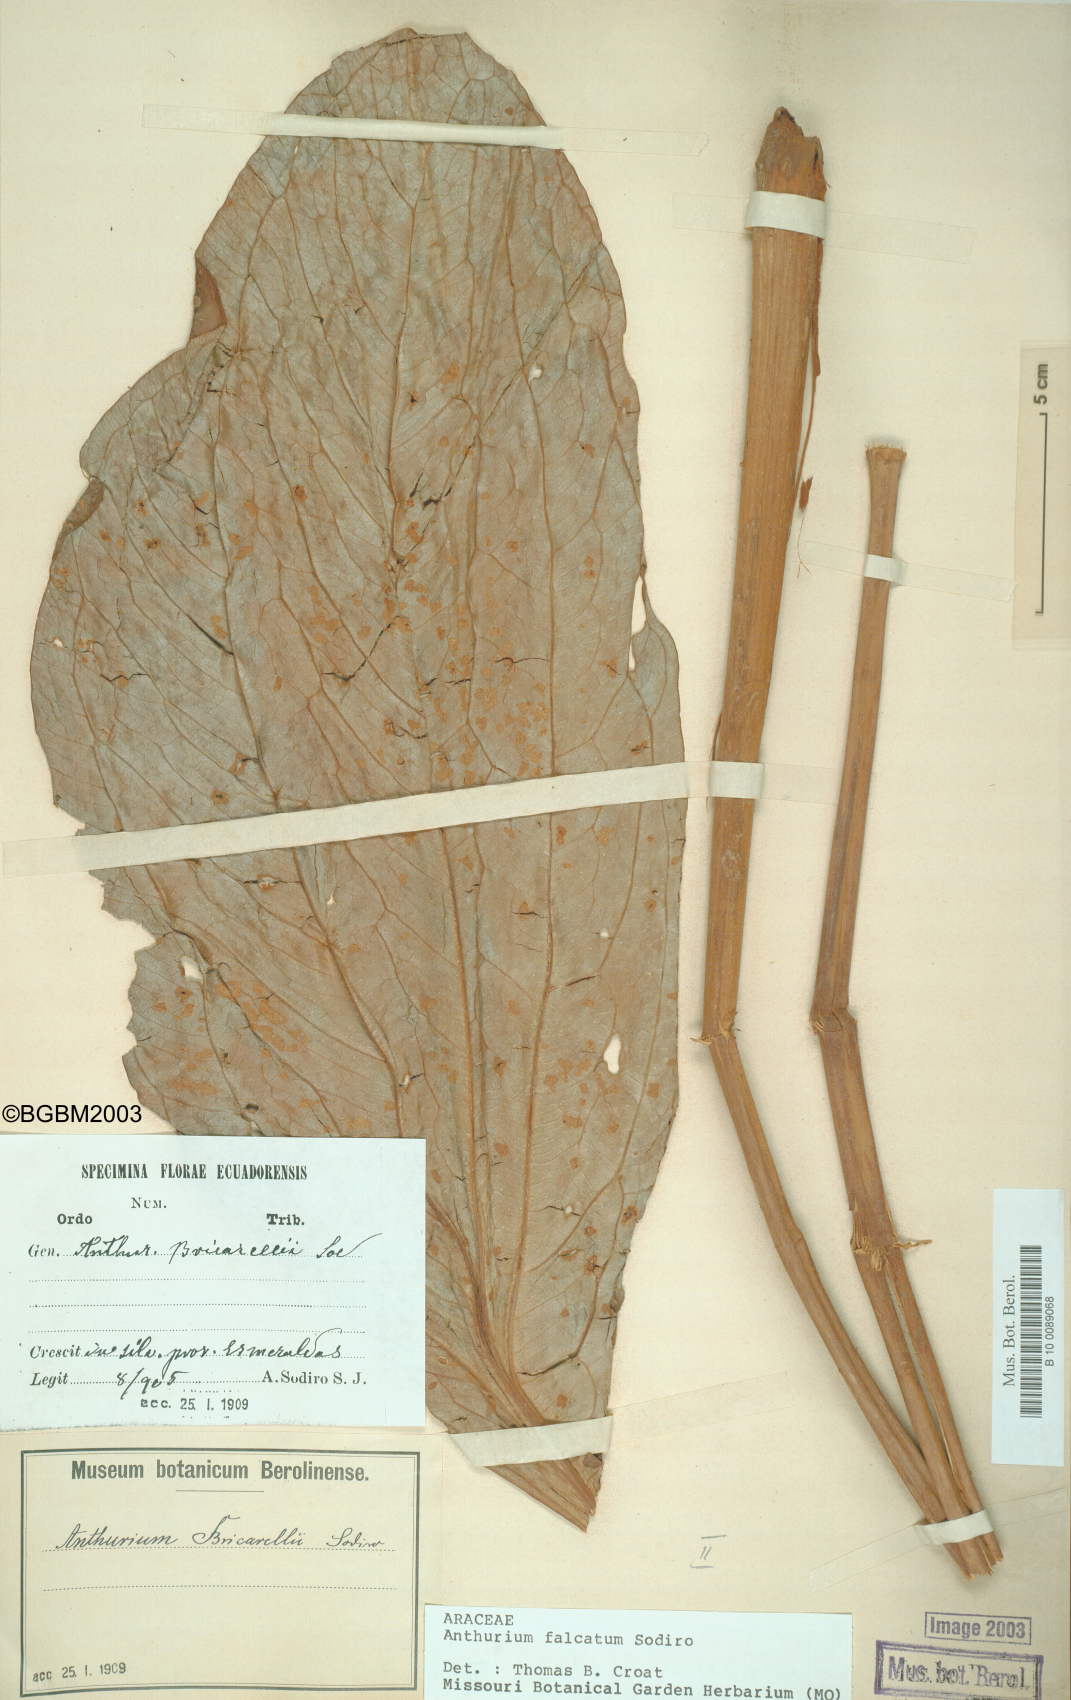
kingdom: Plantae
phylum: Tracheophyta
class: Liliopsida
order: Alismatales
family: Araceae
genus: Anthurium
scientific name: Anthurium rimbachii
